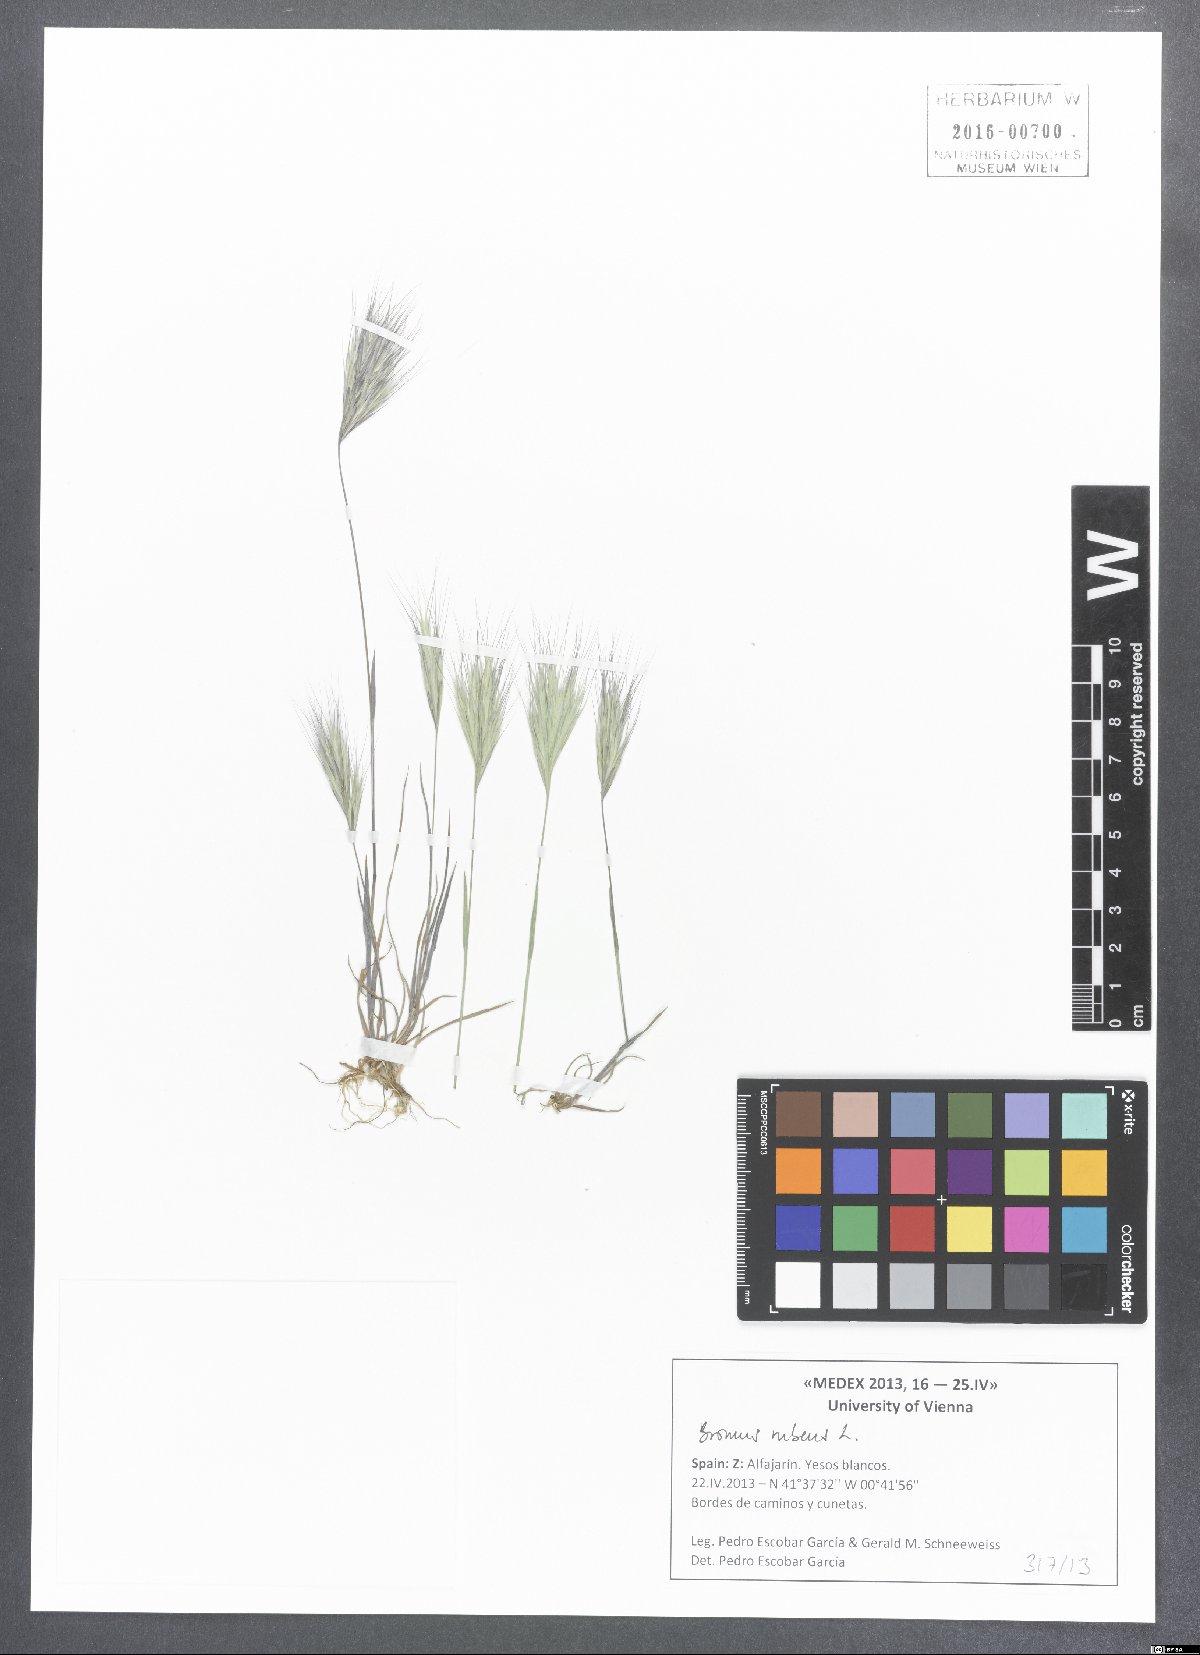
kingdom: Plantae
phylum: Tracheophyta
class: Liliopsida
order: Poales
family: Poaceae
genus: Bromus
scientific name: Bromus rubens
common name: Red brome
